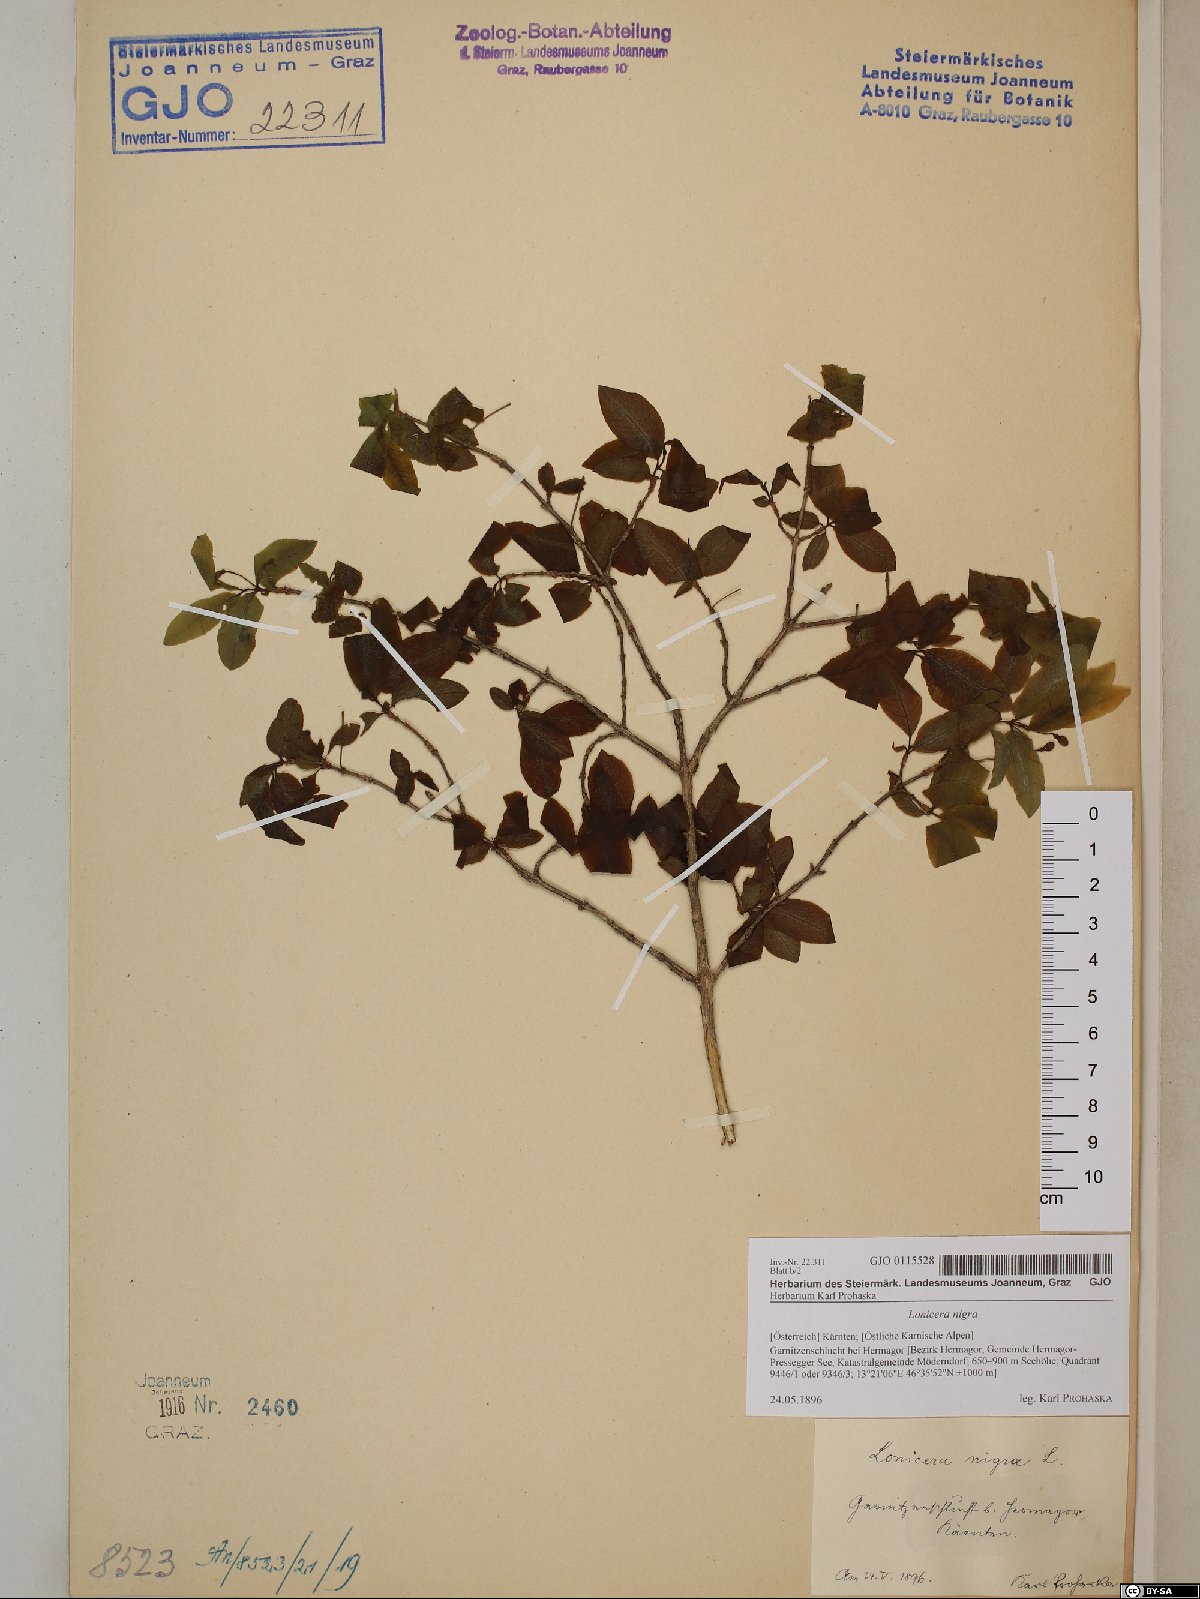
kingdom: Plantae
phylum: Tracheophyta
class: Magnoliopsida
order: Dipsacales
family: Caprifoliaceae
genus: Lonicera
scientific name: Lonicera nigra
